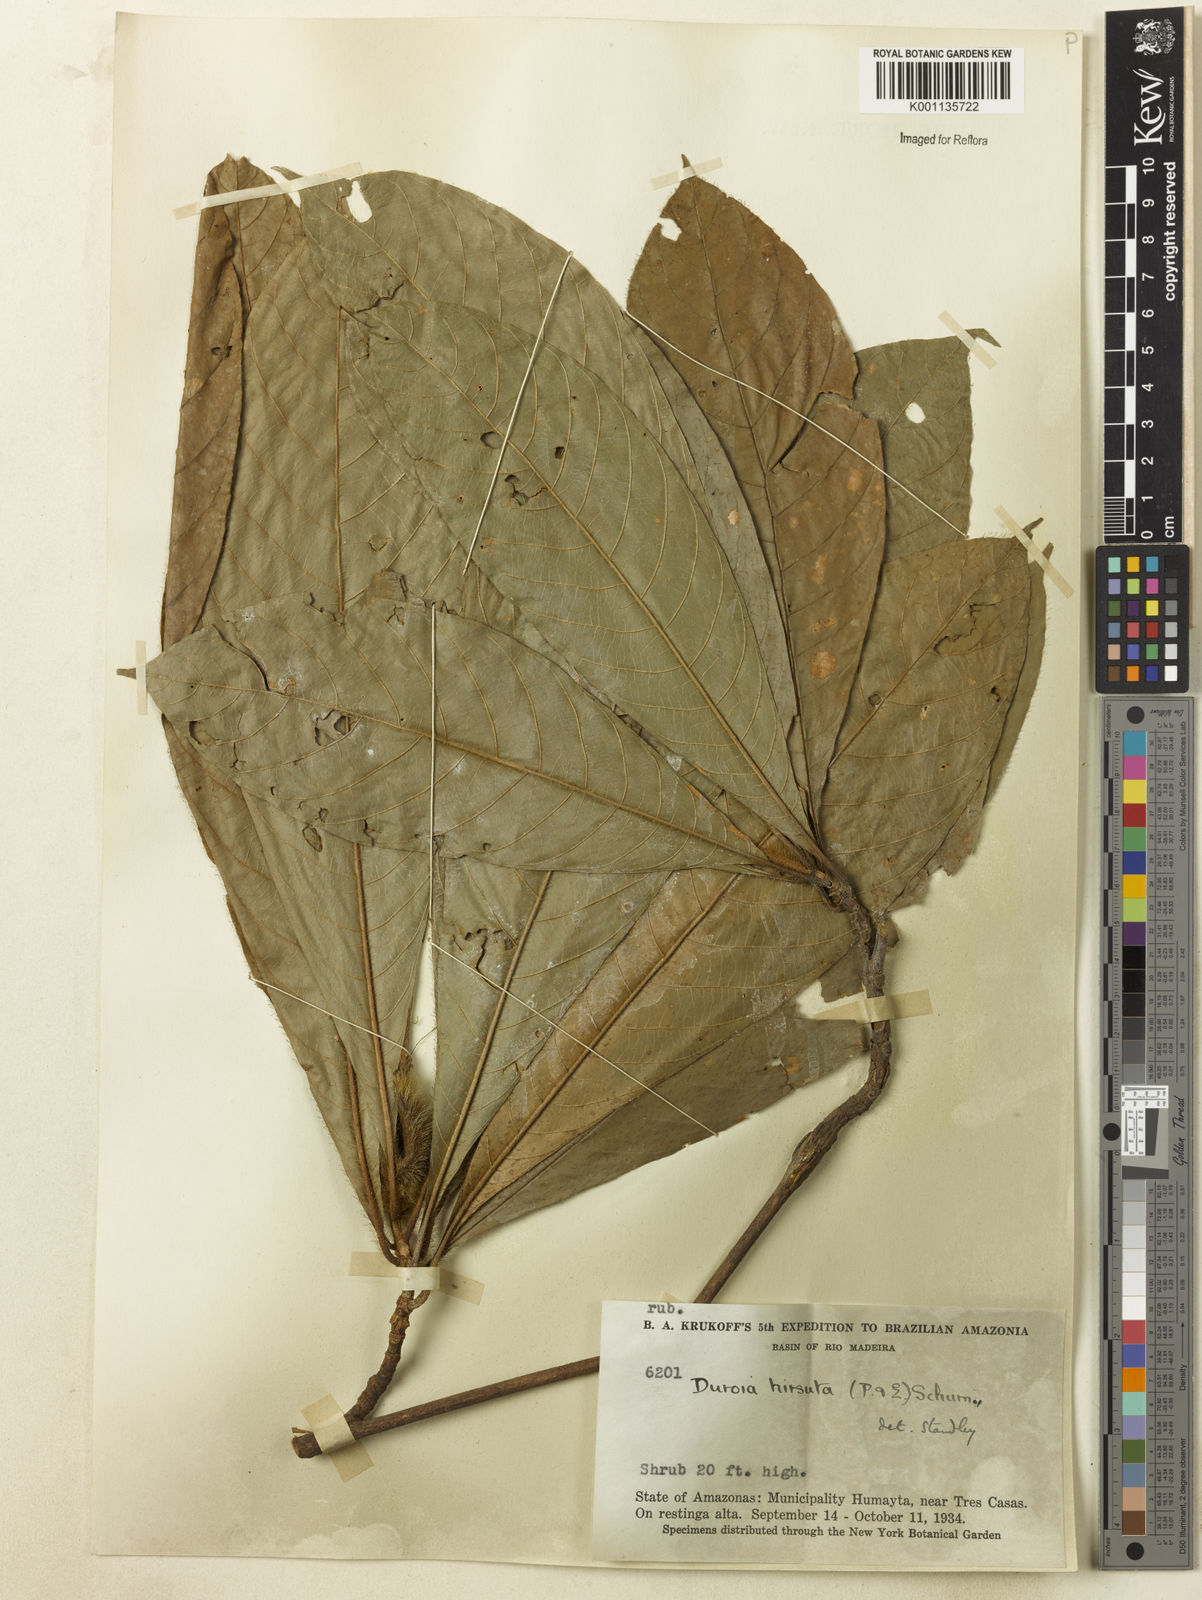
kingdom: Plantae
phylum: Tracheophyta
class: Magnoliopsida
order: Gentianales
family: Rubiaceae
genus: Duroia
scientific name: Duroia hirsuta
